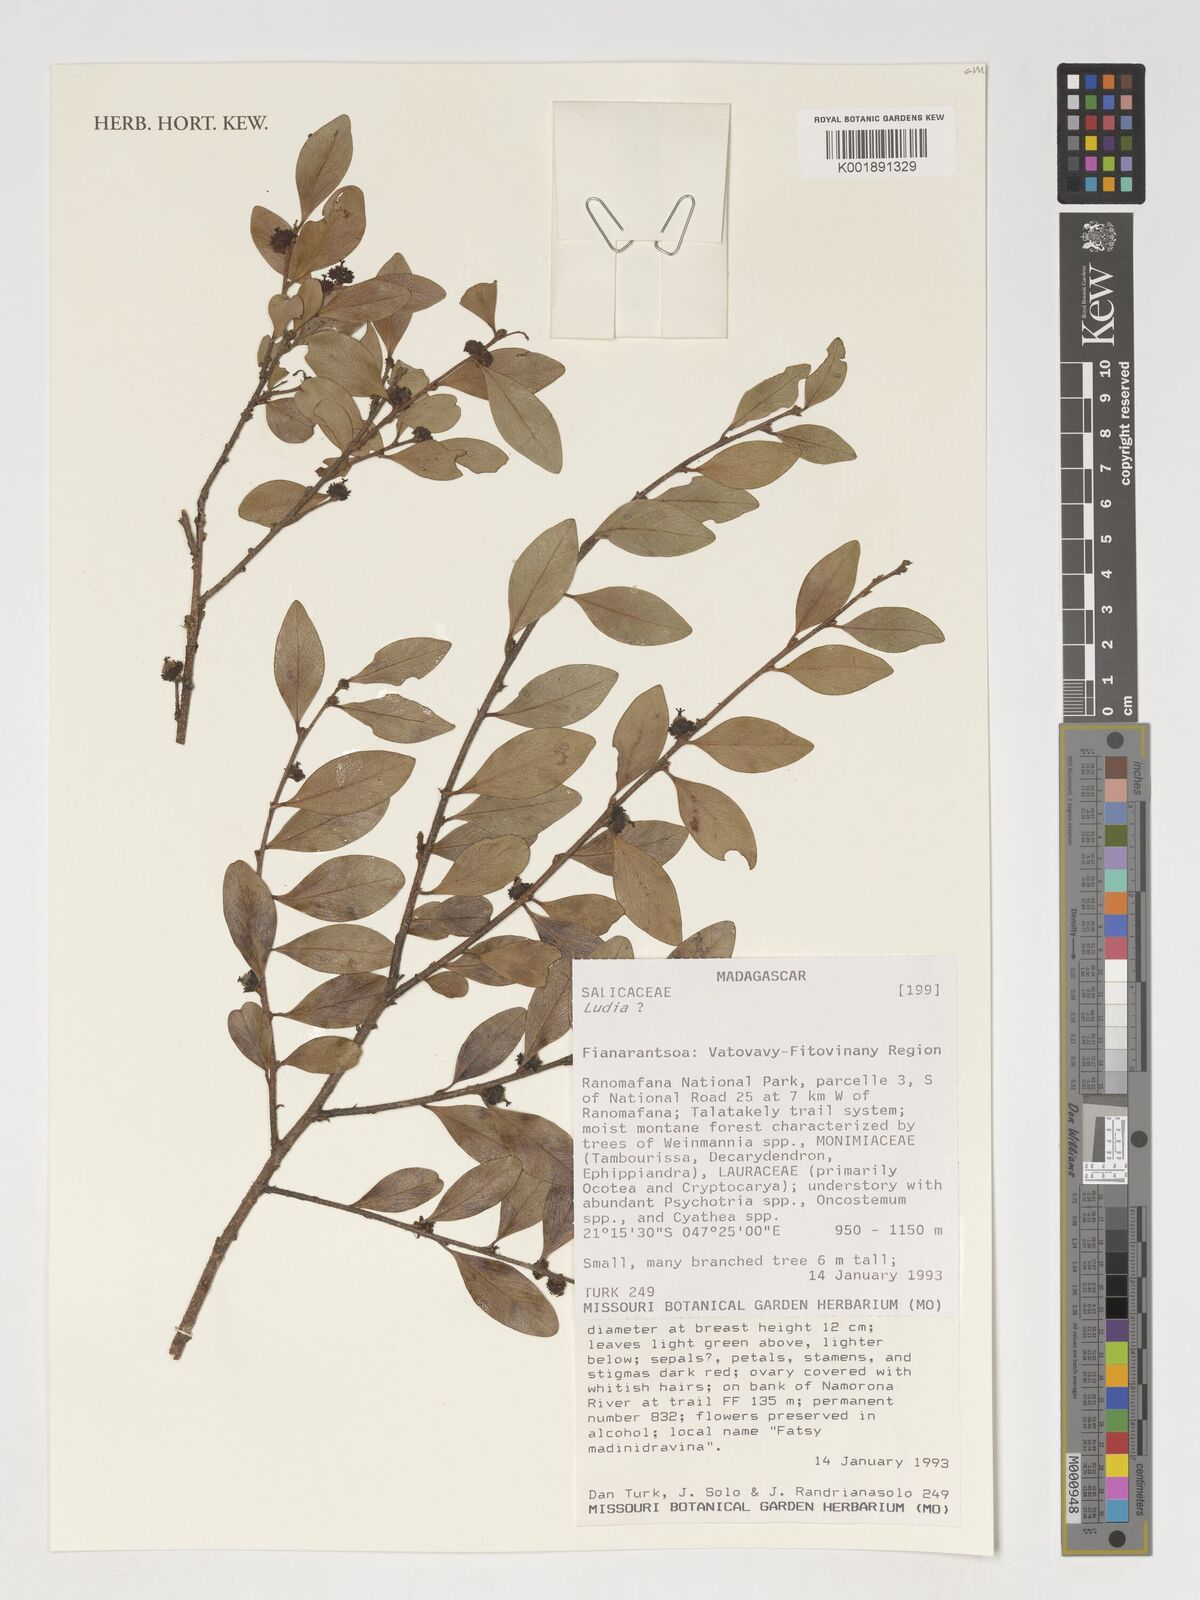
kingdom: Plantae
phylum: Tracheophyta
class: Magnoliopsida
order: Malpighiales
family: Salicaceae
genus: Ludia
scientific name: Ludia
